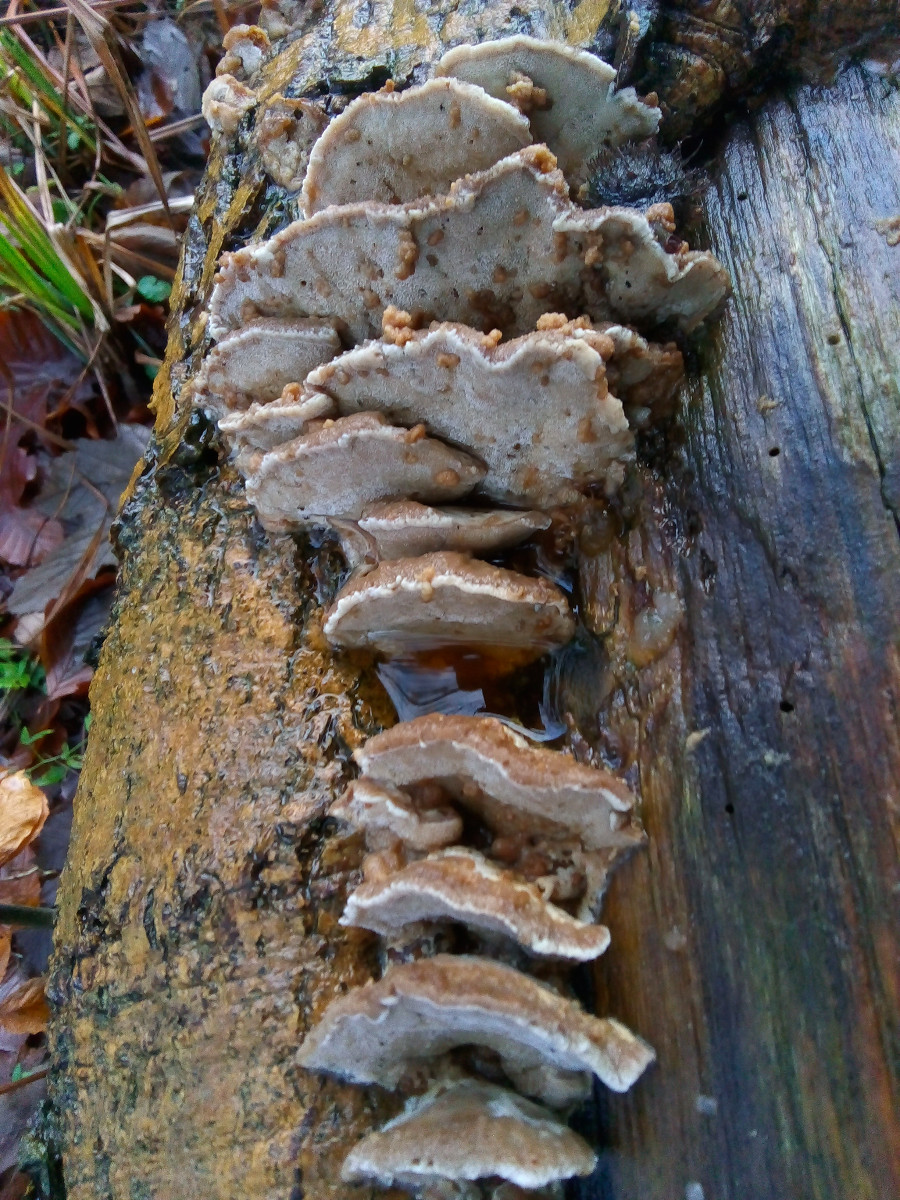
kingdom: Fungi
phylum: Basidiomycota
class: Agaricomycetes
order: Polyporales
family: Phanerochaetaceae
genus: Bjerkandera
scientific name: Bjerkandera fumosa
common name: grågul sodporesvamp
